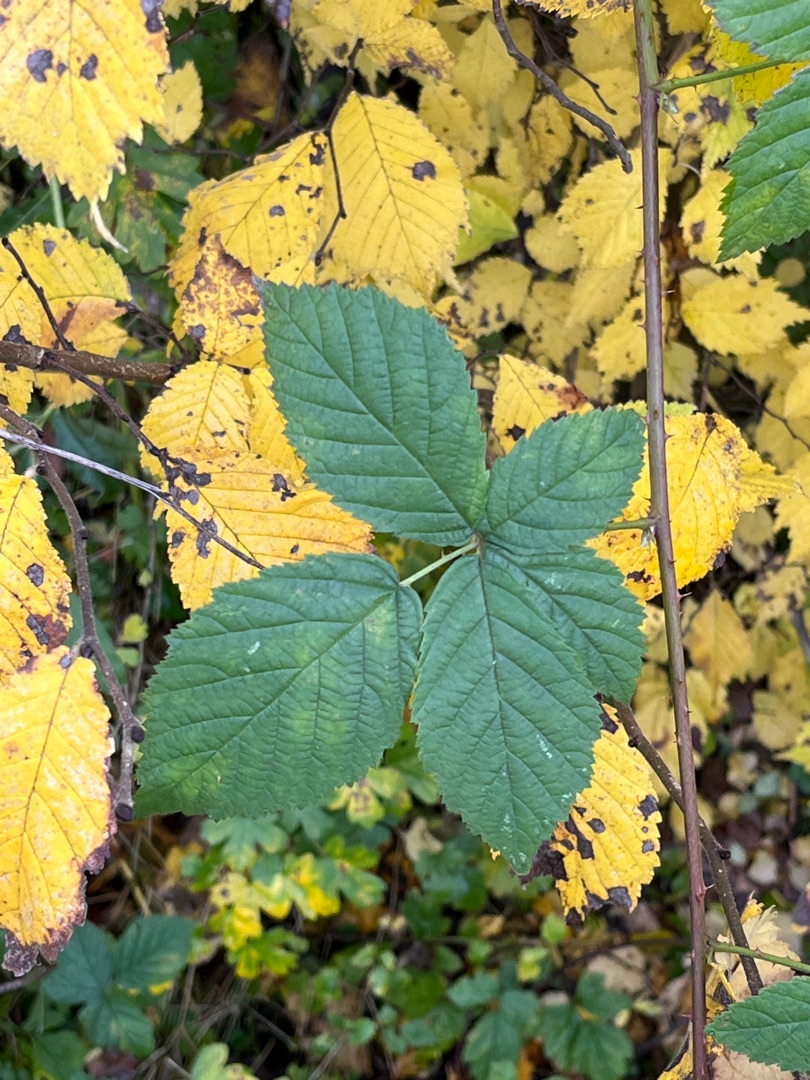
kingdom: Plantae
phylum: Tracheophyta
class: Magnoliopsida
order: Rosales
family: Rosaceae
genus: Rubus
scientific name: Rubus
